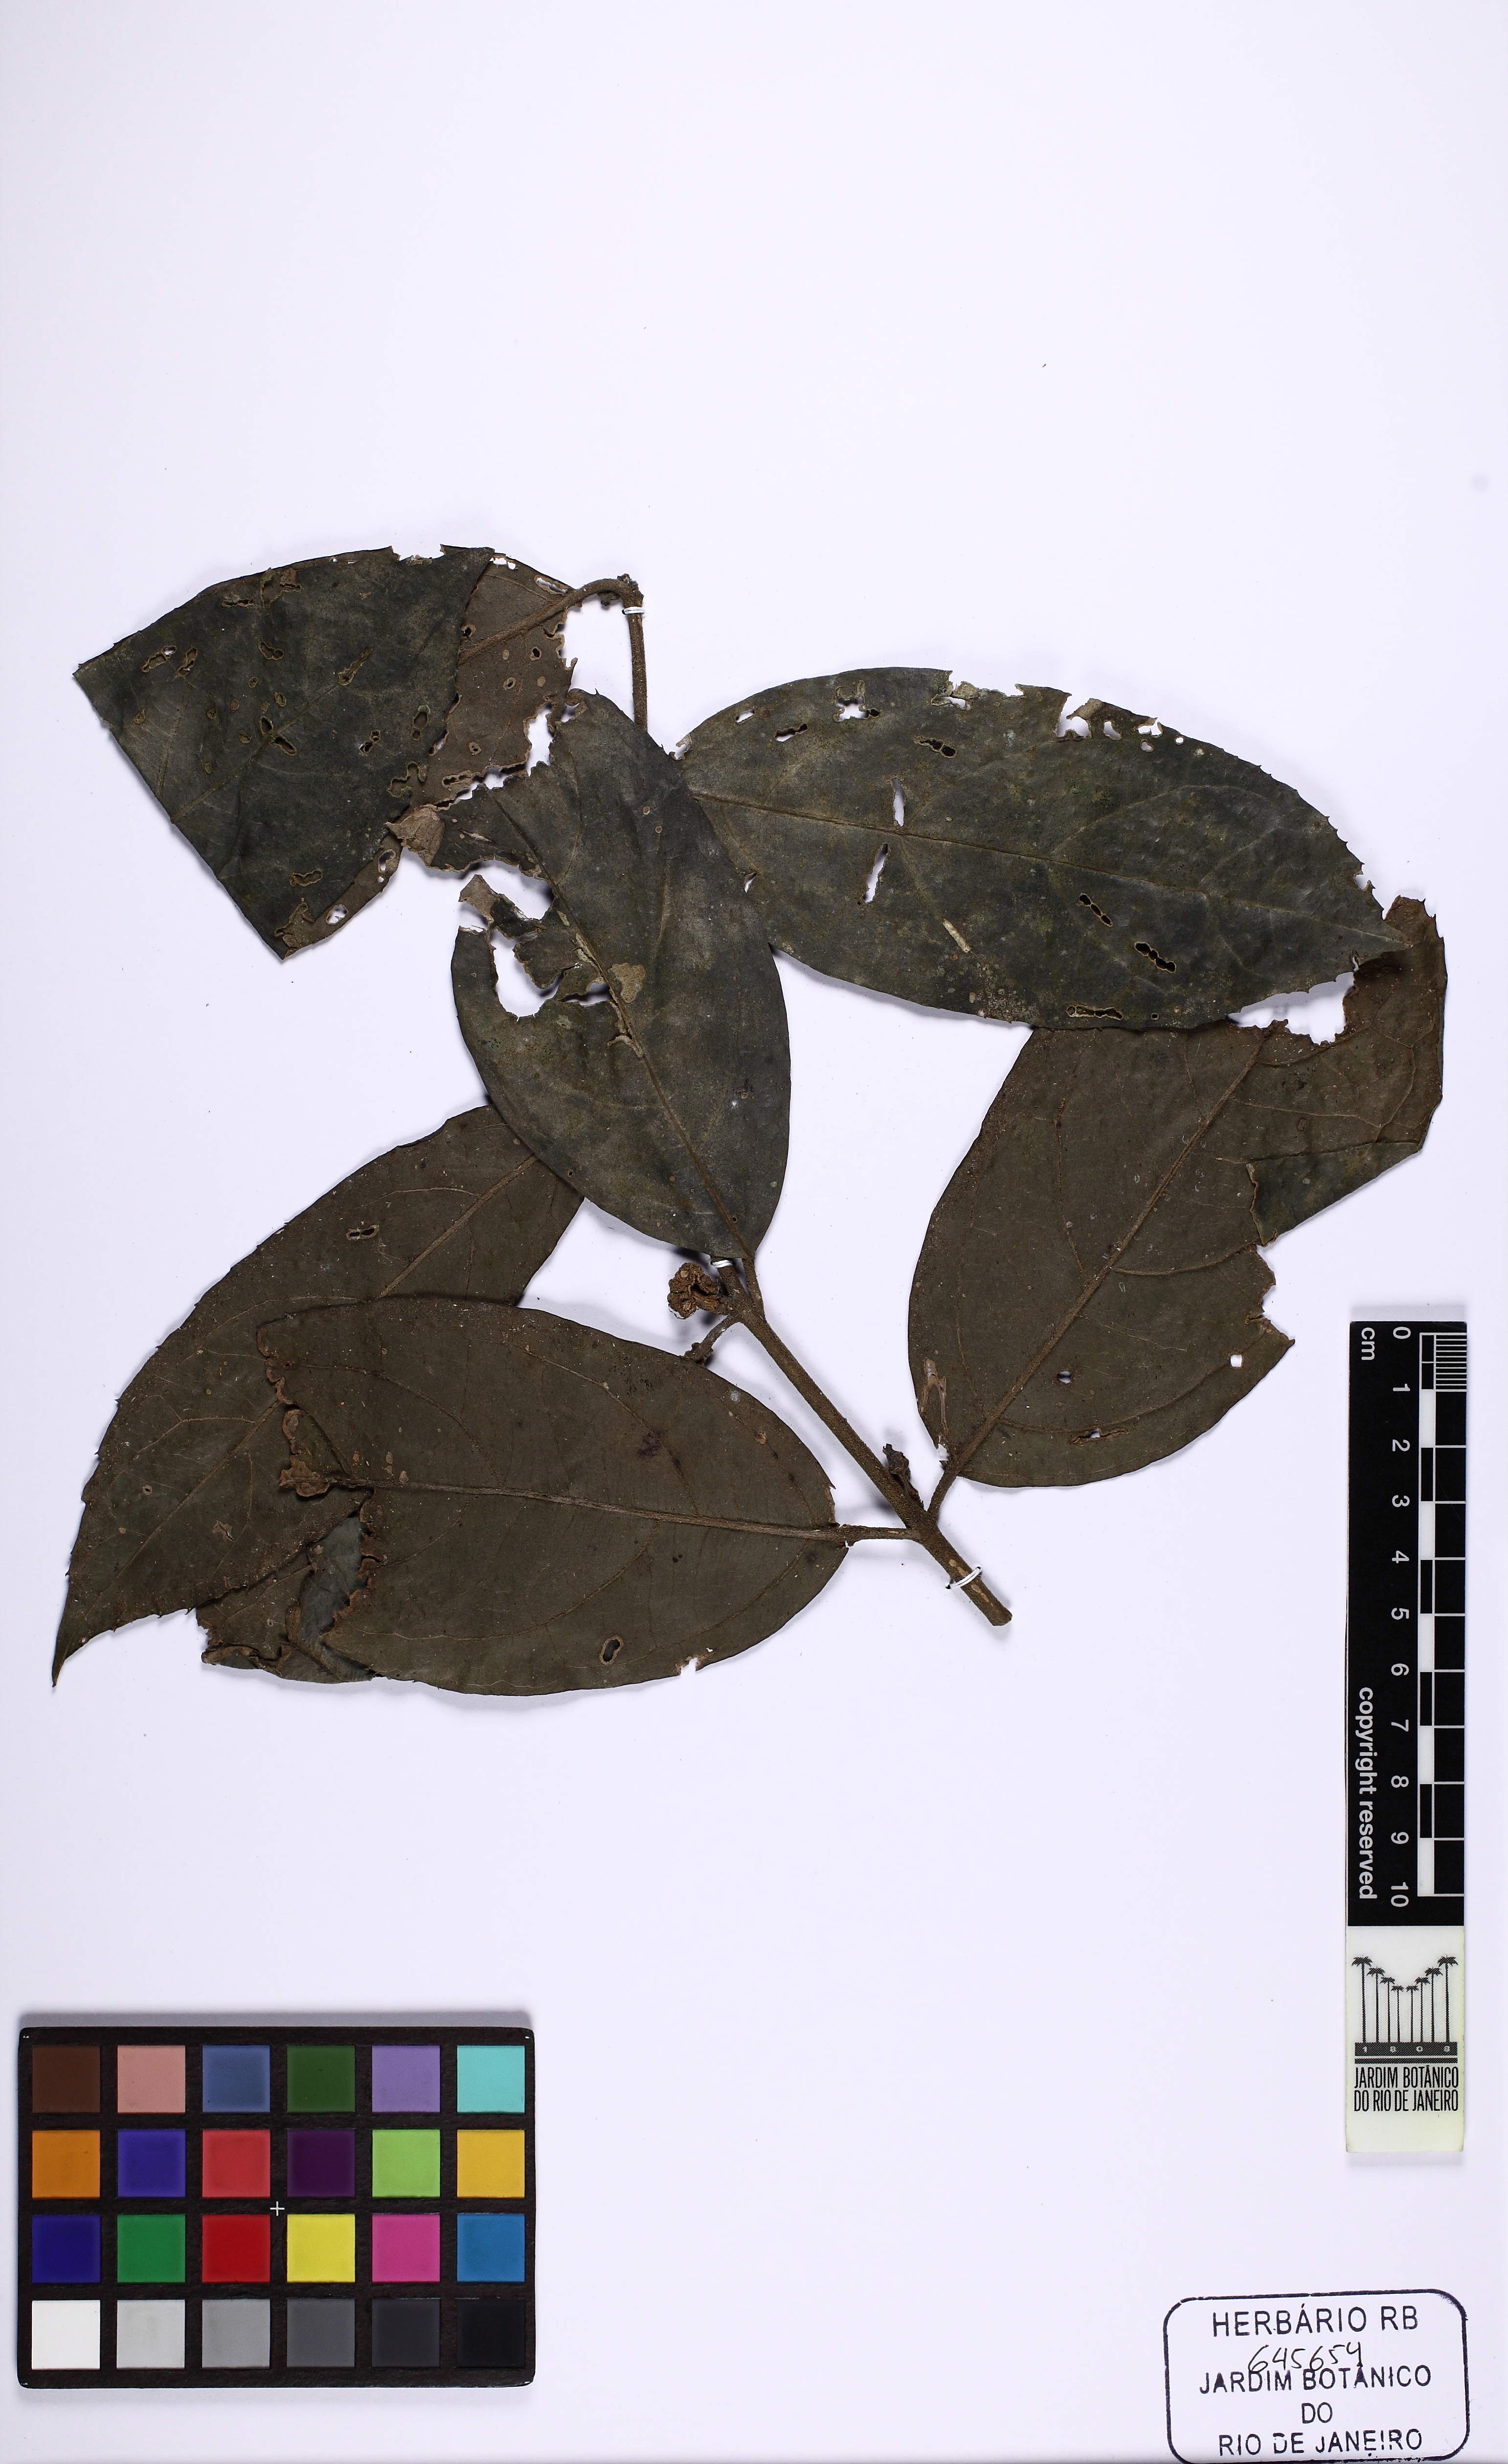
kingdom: Plantae
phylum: Tracheophyta
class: Magnoliopsida
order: Laurales
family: Monimiaceae
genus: Mollinedia
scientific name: Mollinedia longifolia
